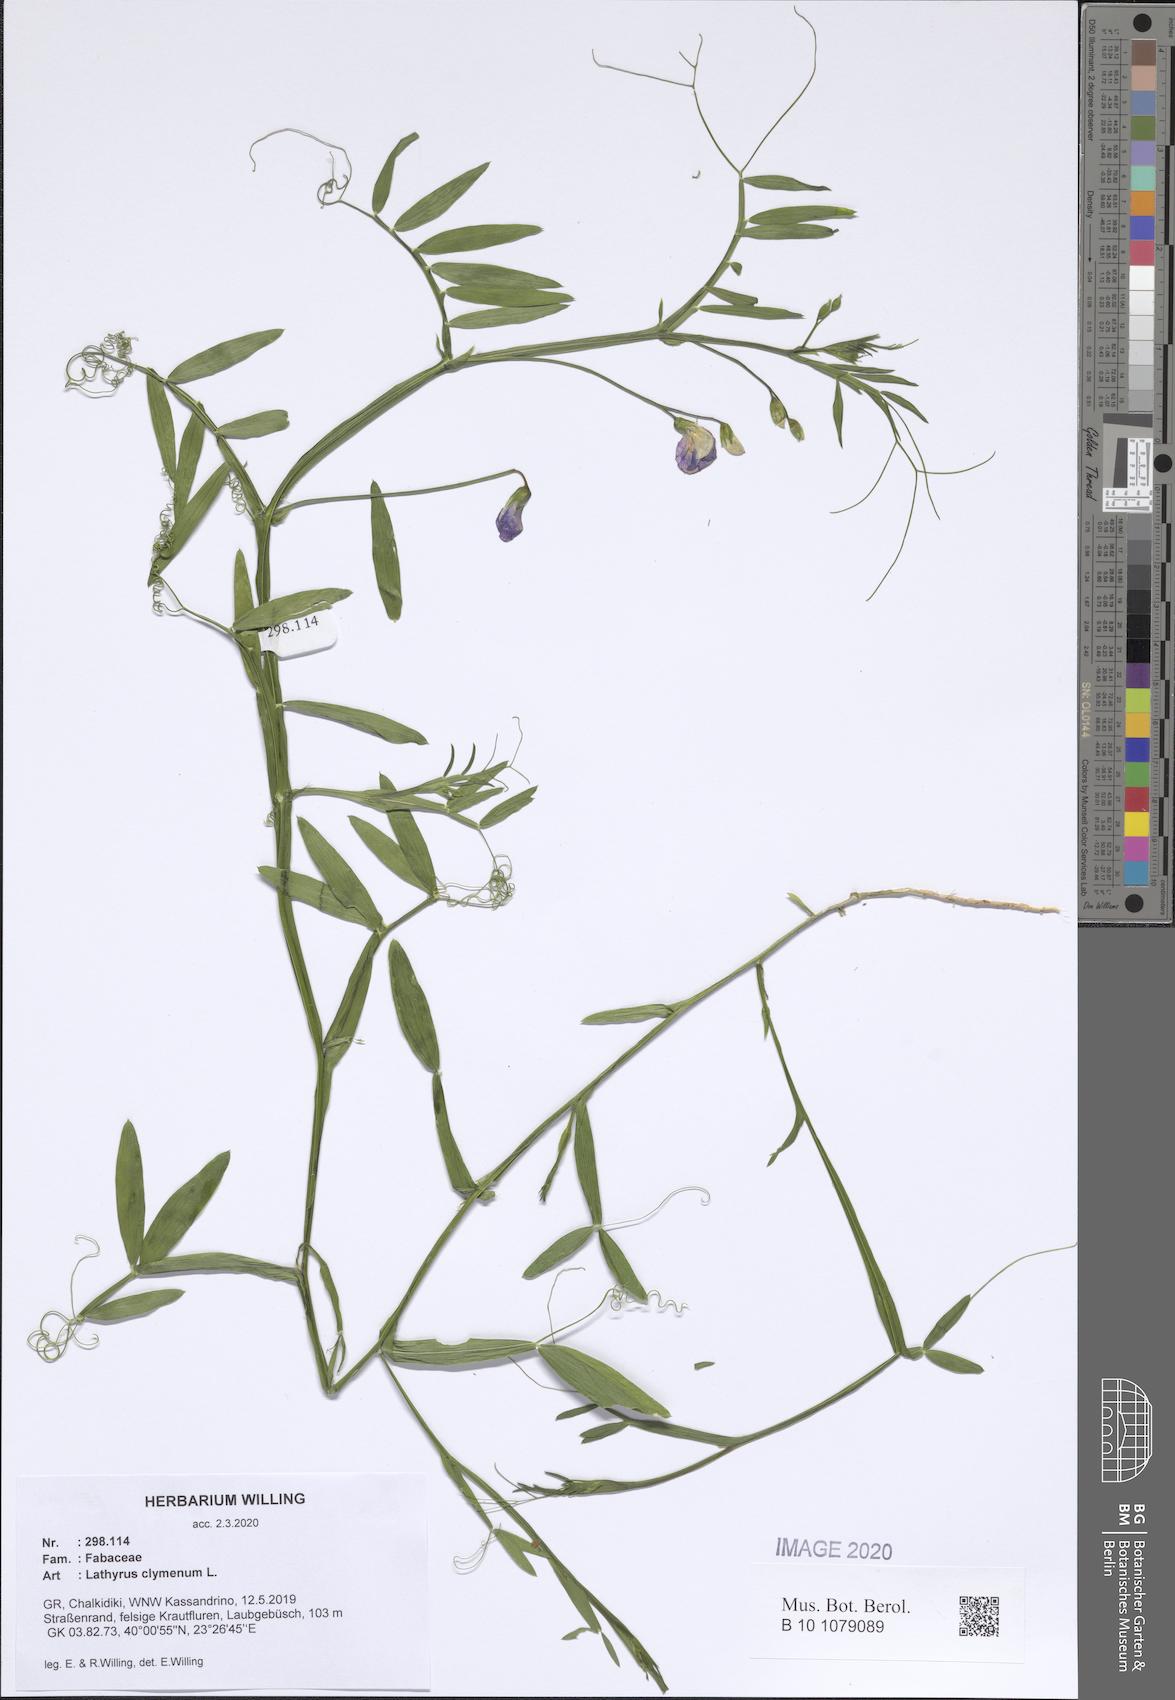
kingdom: Plantae
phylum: Tracheophyta
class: Magnoliopsida
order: Fabales
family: Fabaceae
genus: Lathyrus
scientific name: Lathyrus clymenum
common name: Spanish vetchling
